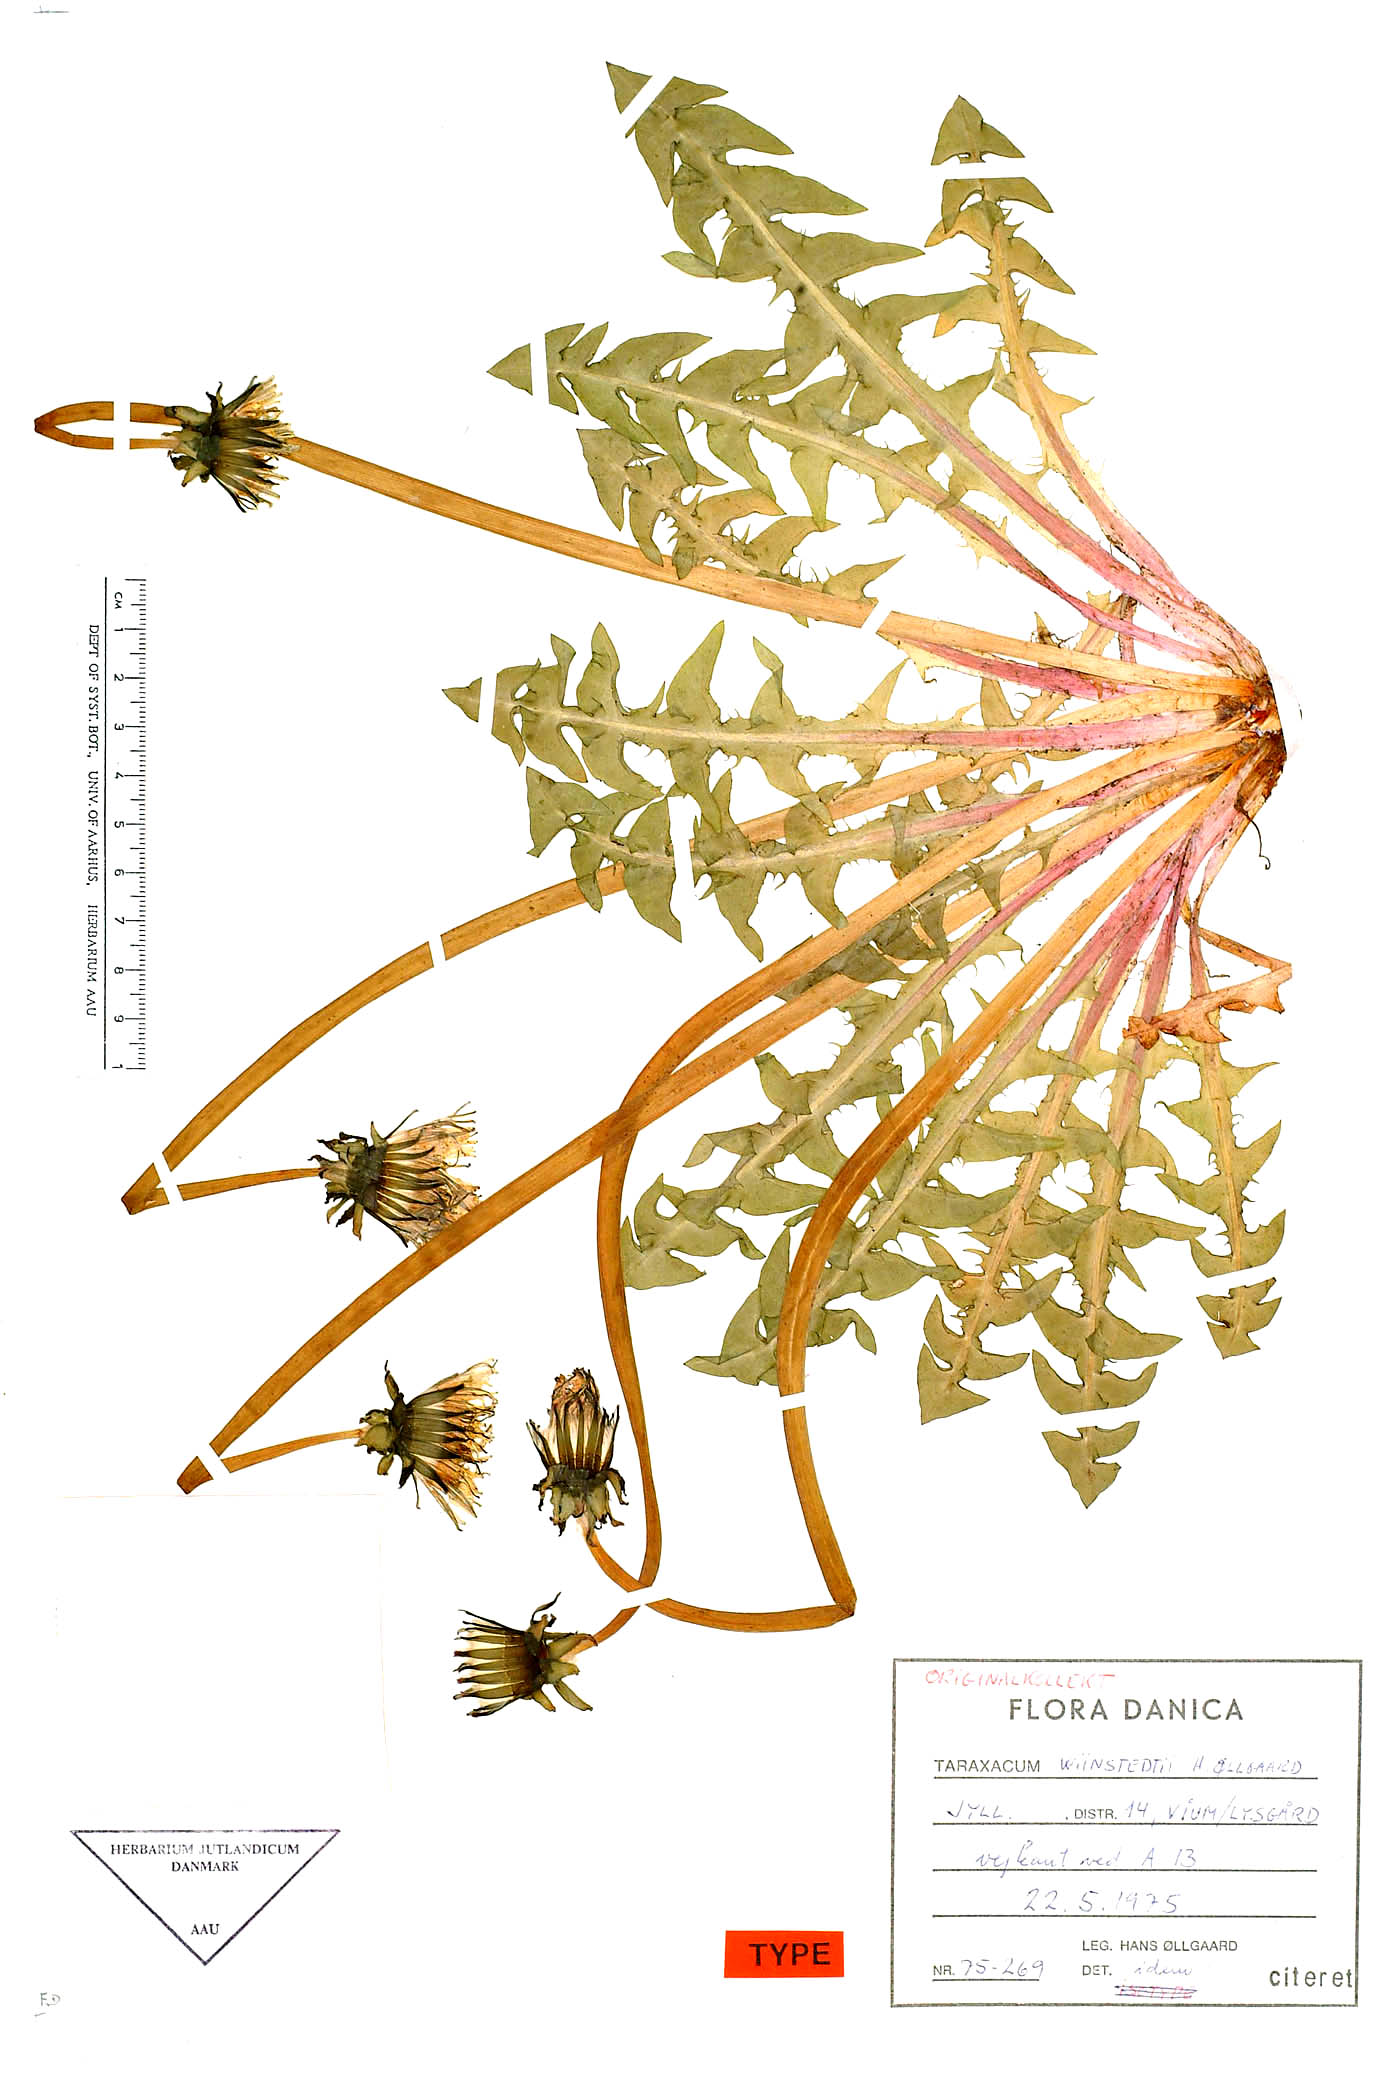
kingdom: Plantae
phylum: Tracheophyta
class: Magnoliopsida
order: Asterales
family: Asteraceae
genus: Taraxacum
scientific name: Taraxacum wiinstedtii
